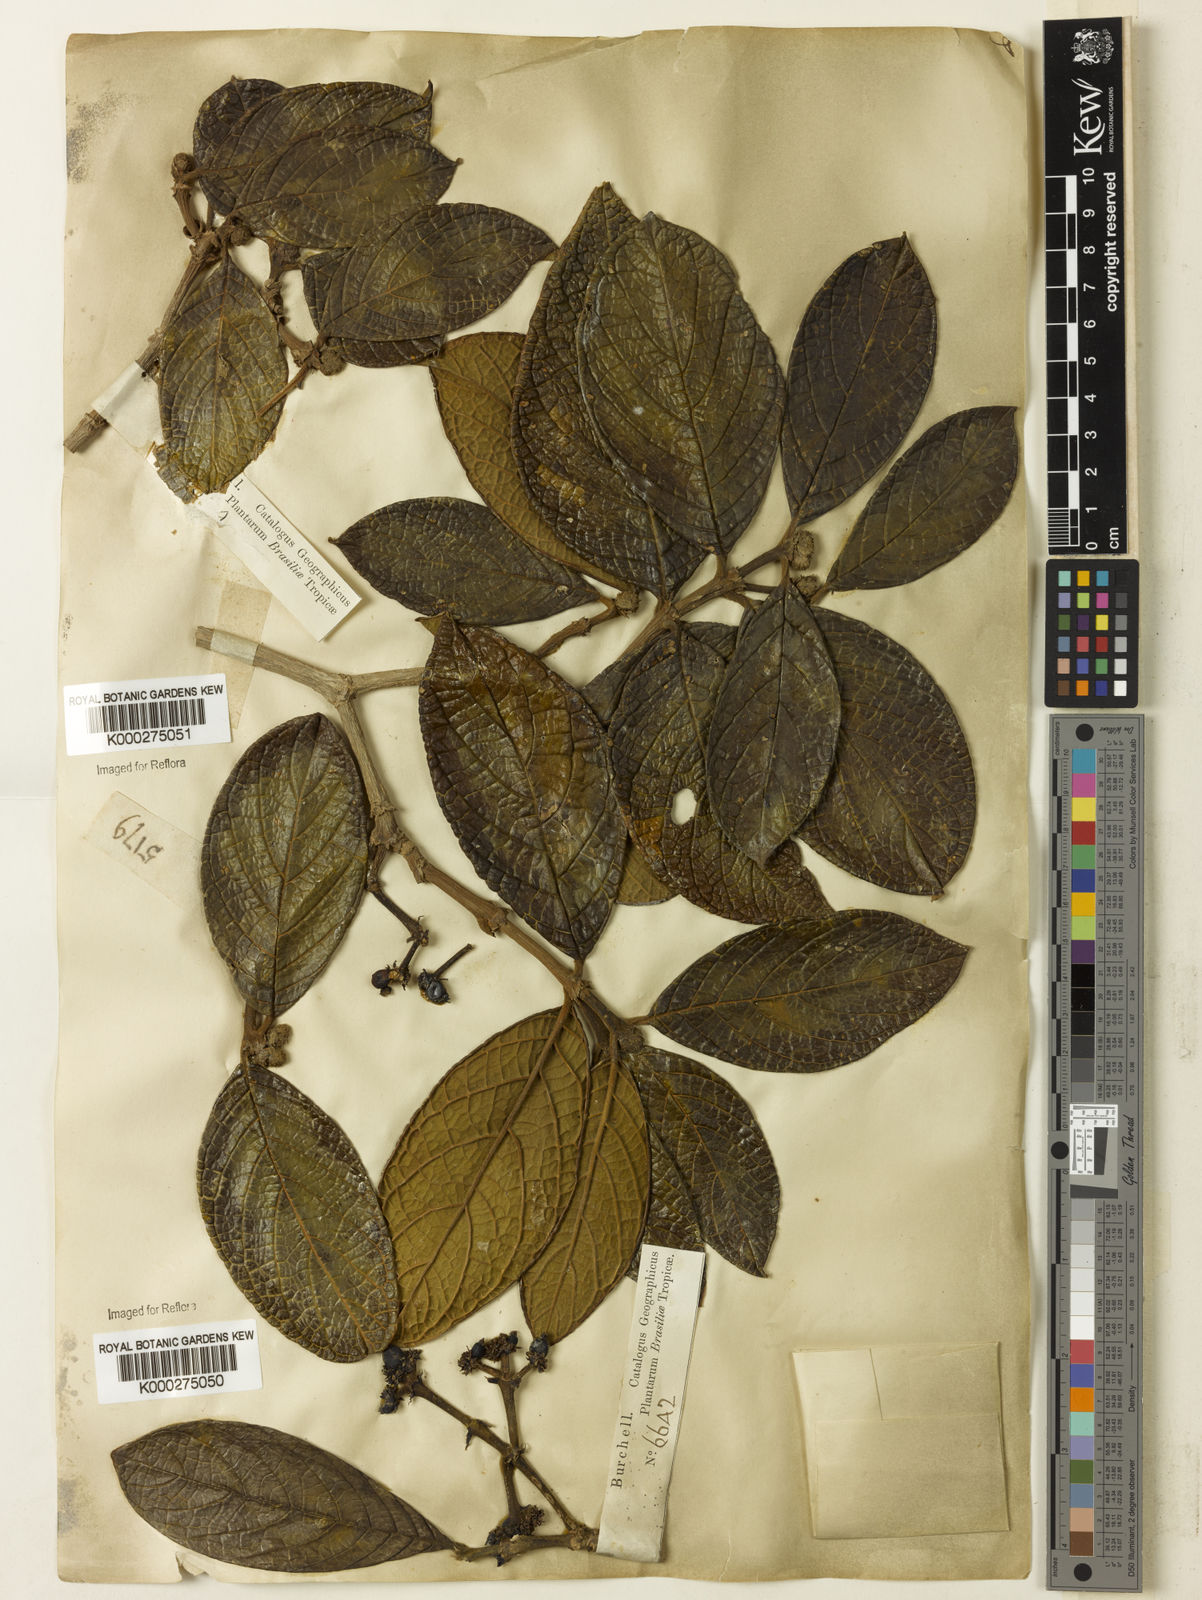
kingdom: Plantae
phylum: Tracheophyta
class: Magnoliopsida
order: Gentianales
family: Rubiaceae
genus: Rudgea
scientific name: Rudgea viburnoides
